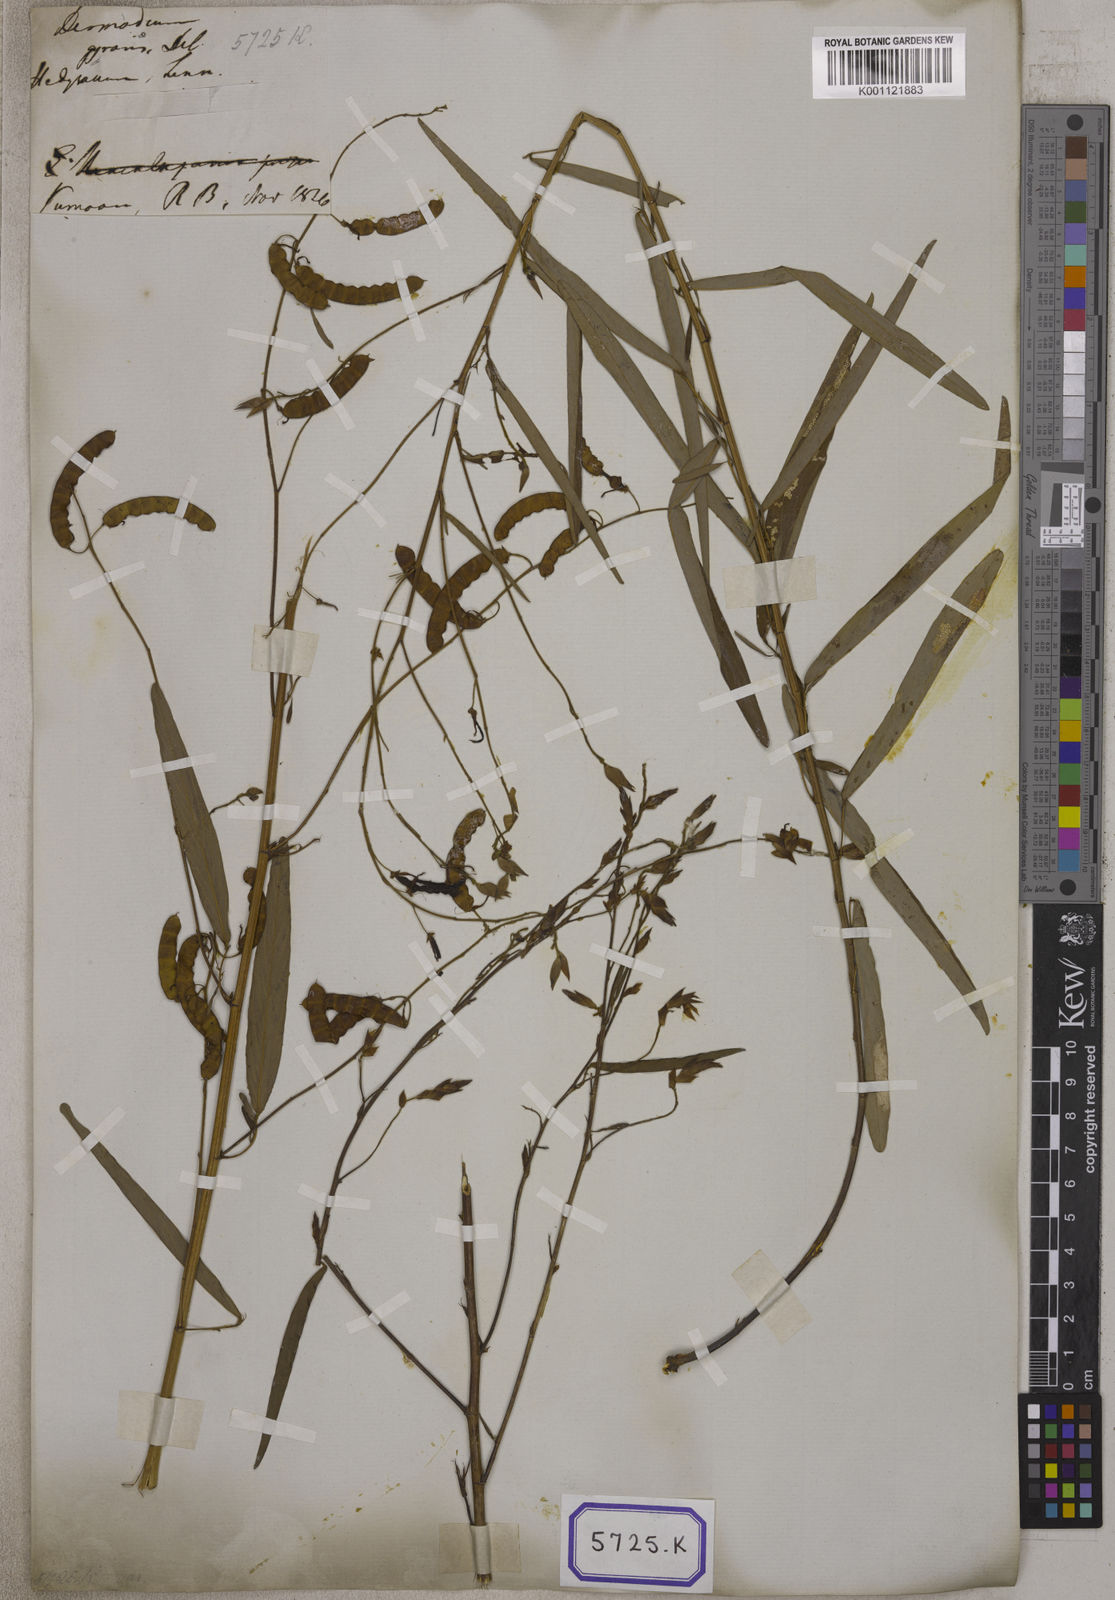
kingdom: Plantae
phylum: Tracheophyta
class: Magnoliopsida
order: Fabales
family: Fabaceae
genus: Codariocalyx
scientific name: Codariocalyx motorius
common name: Telegraph-plant
